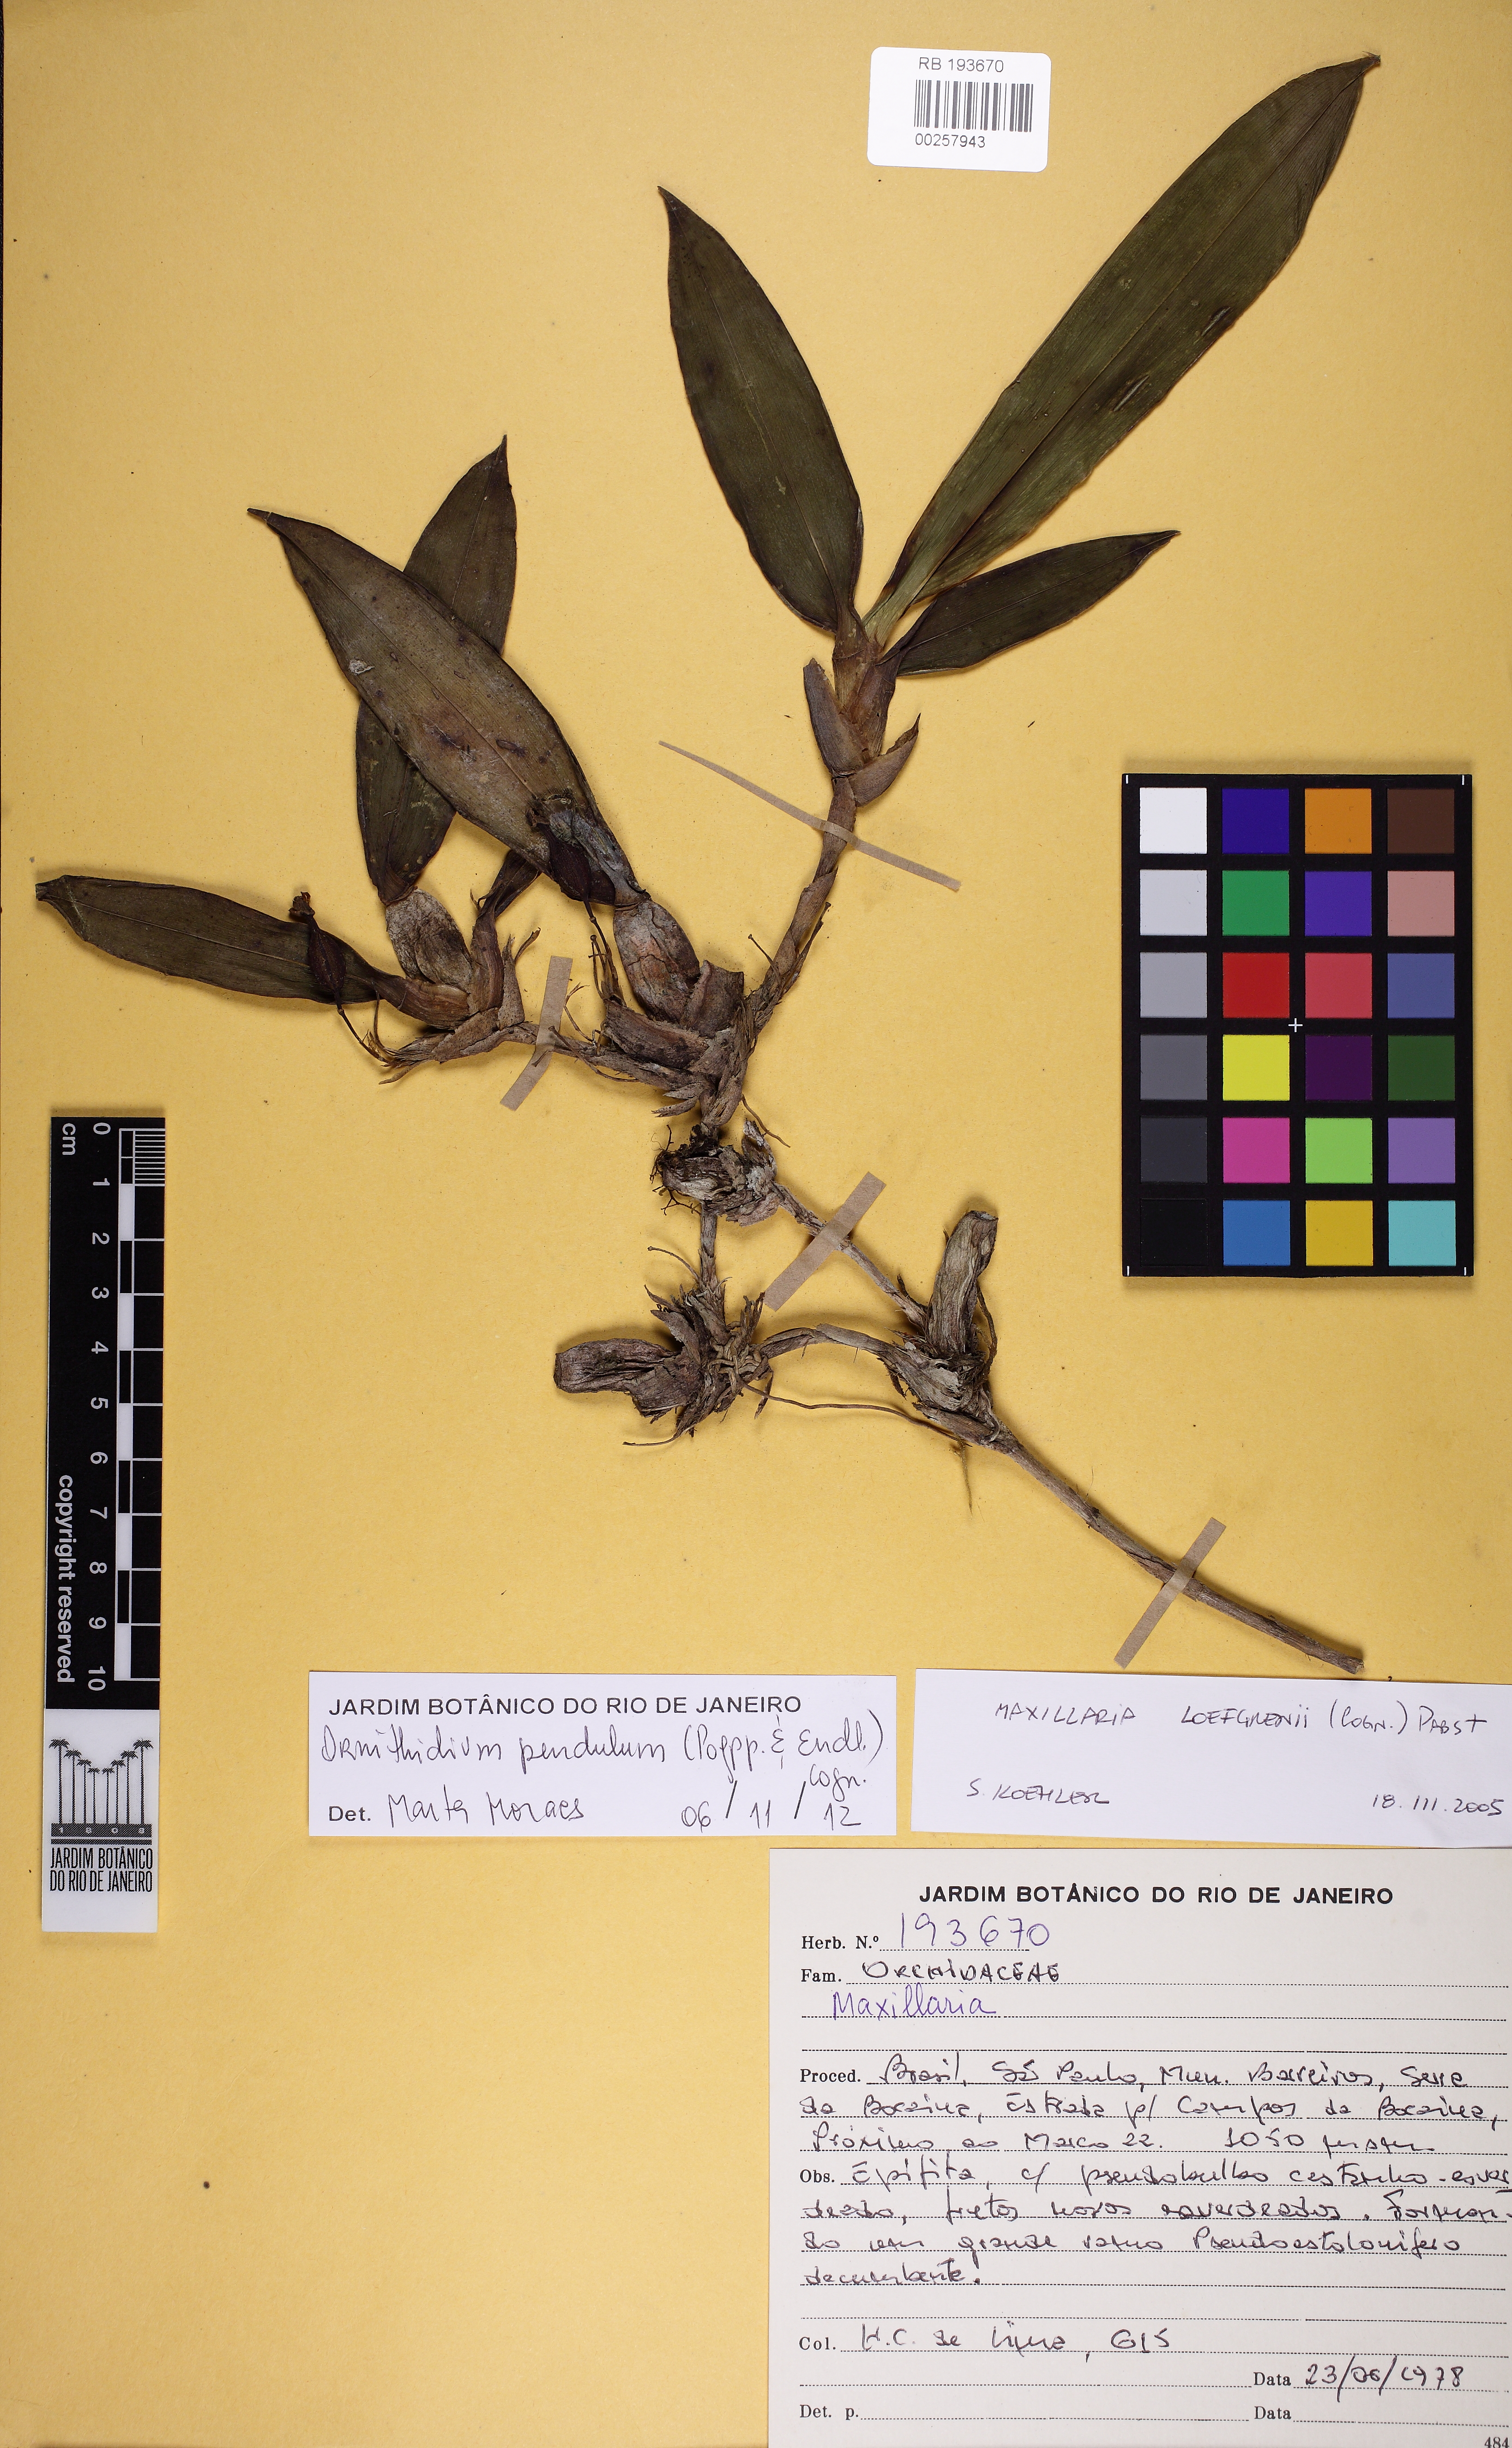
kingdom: Plantae
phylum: Tracheophyta
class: Liliopsida
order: Asparagales
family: Orchidaceae
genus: Maxillaria
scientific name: Maxillaria pendula
